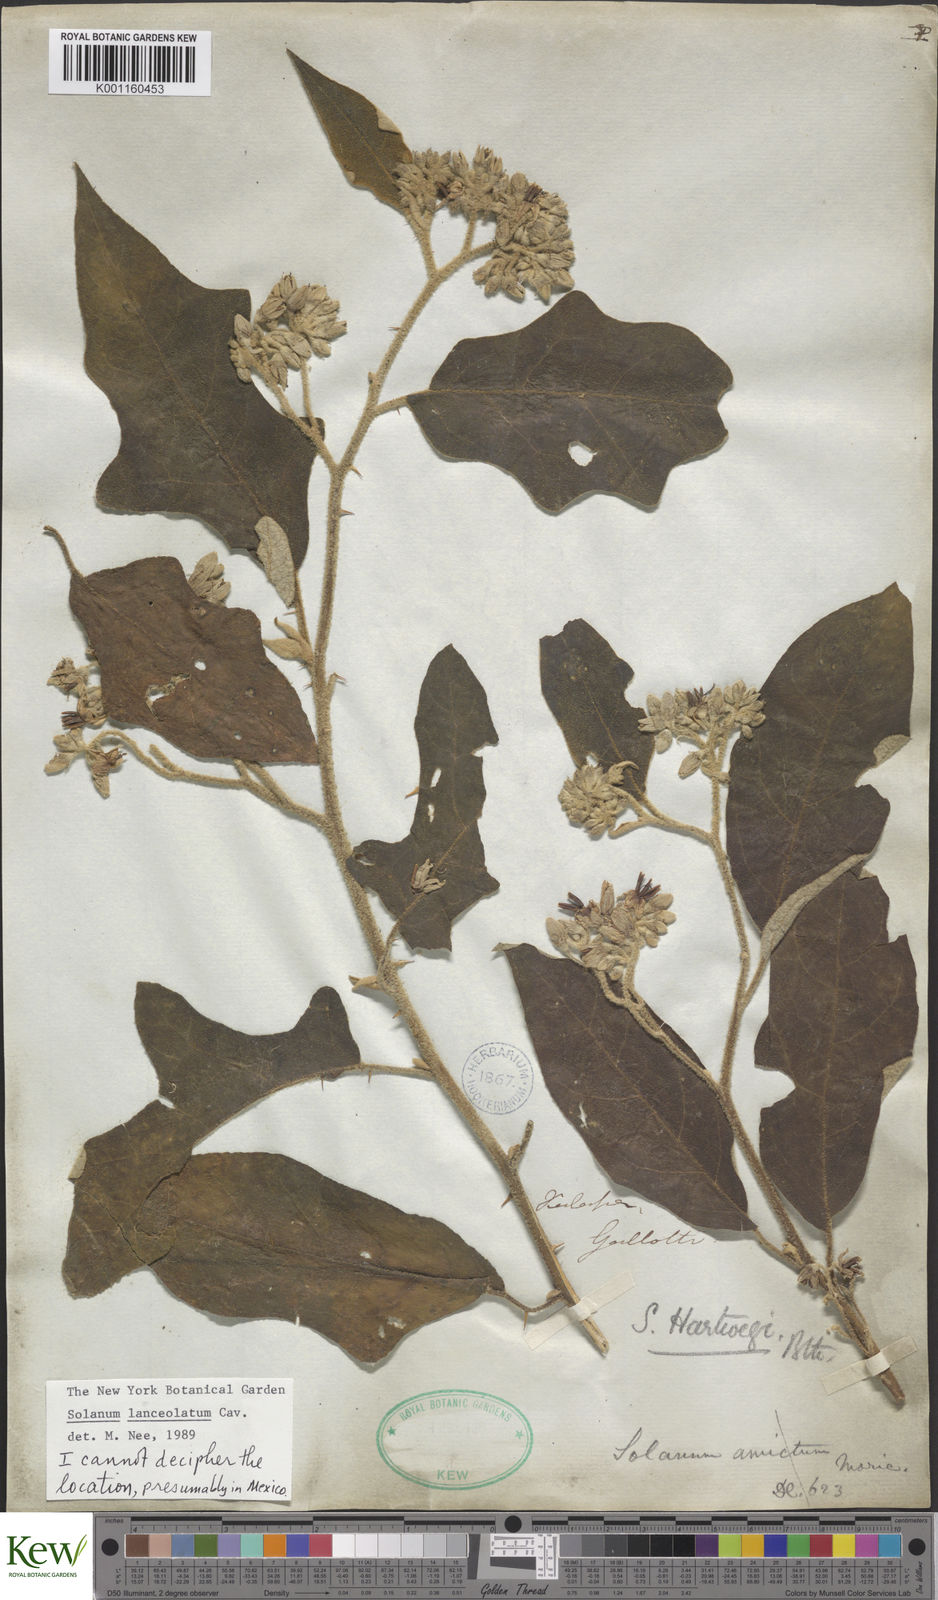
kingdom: Plantae
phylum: Tracheophyta
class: Magnoliopsida
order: Solanales
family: Solanaceae
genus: Solanum
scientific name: Solanum lanceolatum
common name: Orangeberry nightshade
